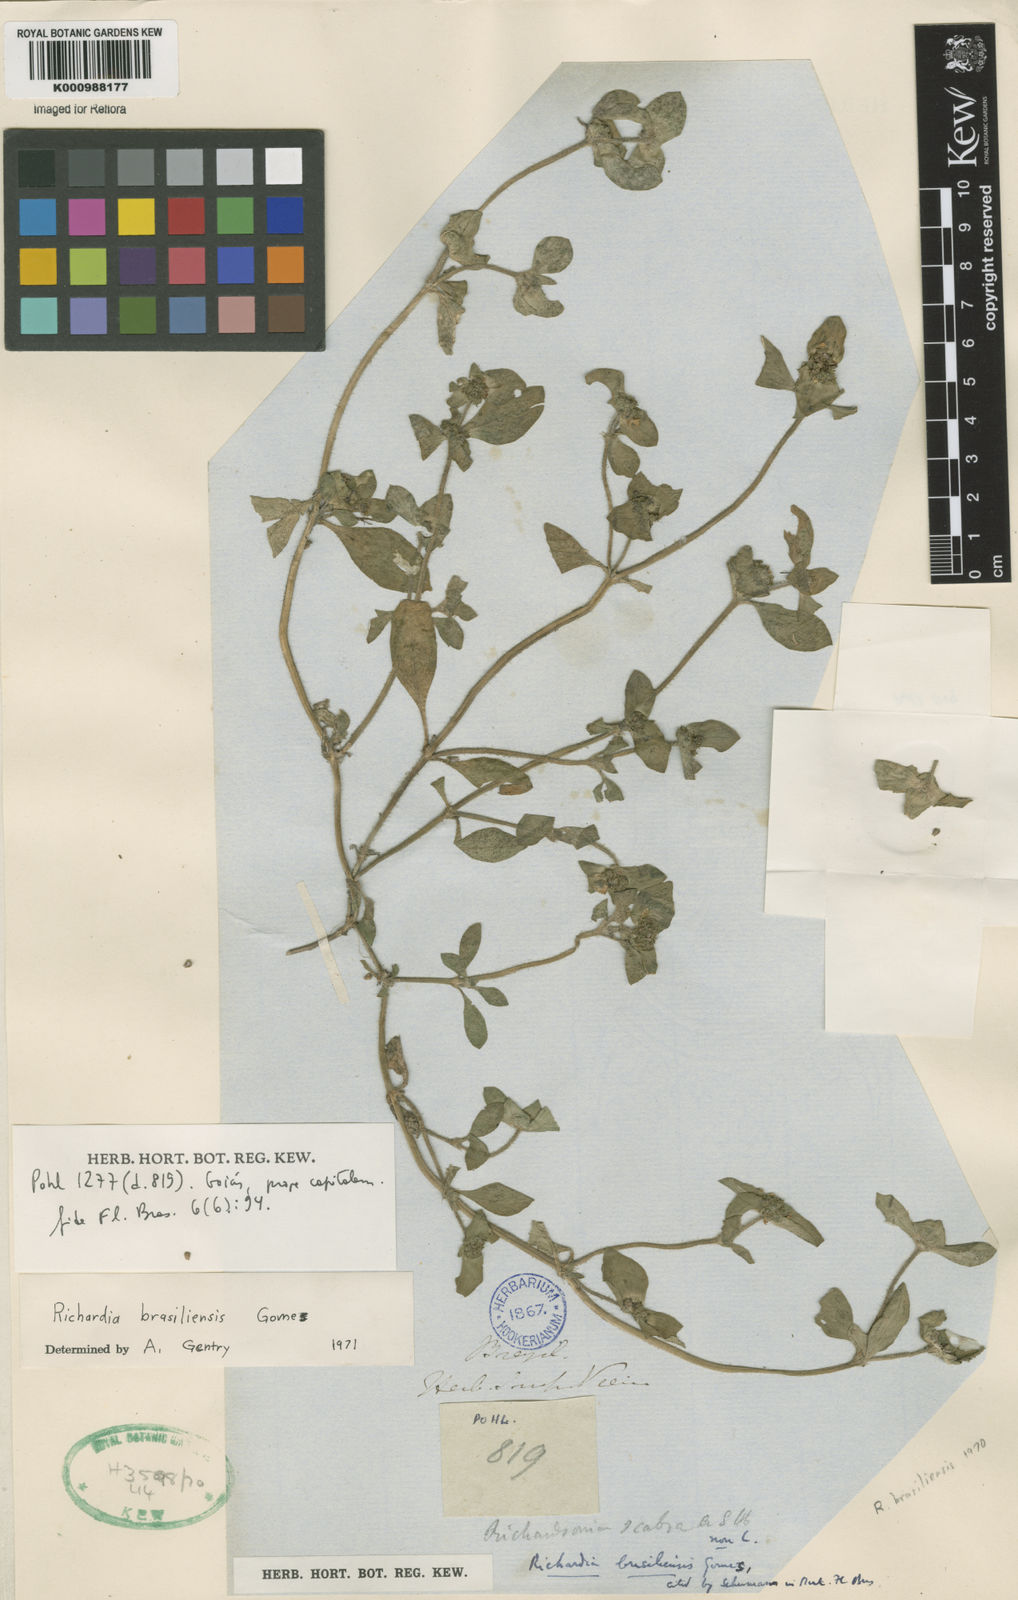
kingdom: Plantae
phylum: Tracheophyta
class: Magnoliopsida
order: Gentianales
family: Rubiaceae
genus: Richardia
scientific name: Richardia brasiliensis
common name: Tropical mexican clover
